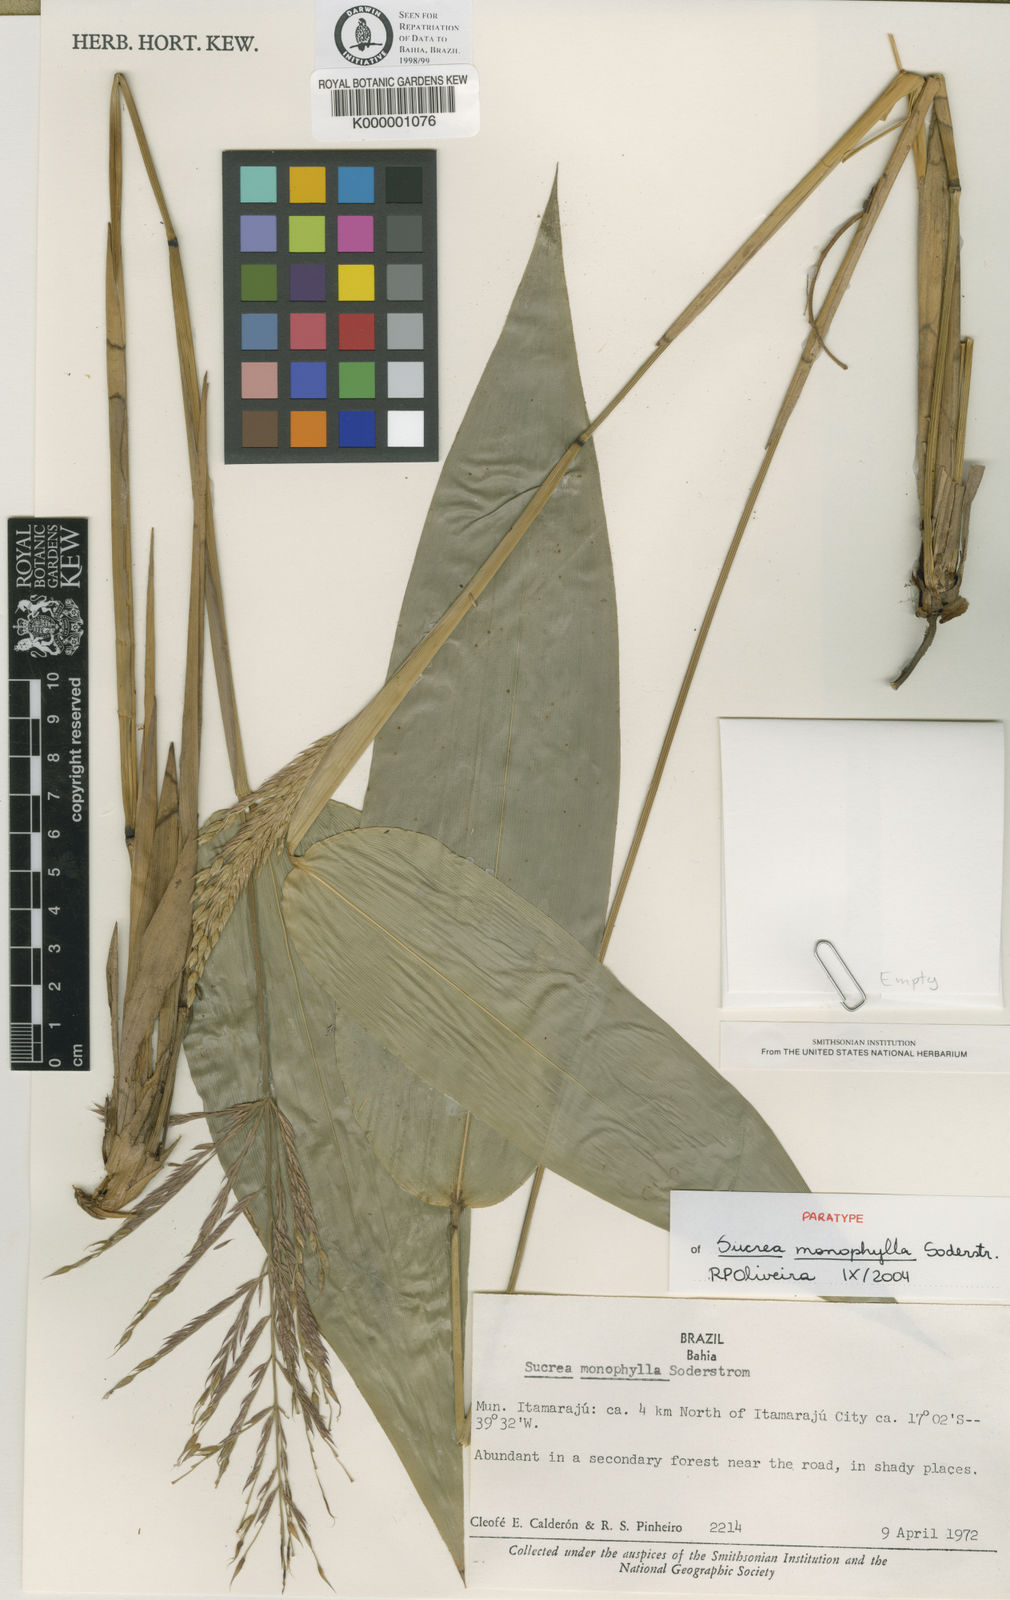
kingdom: Plantae
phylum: Tracheophyta
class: Liliopsida
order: Poales
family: Poaceae
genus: Raddia
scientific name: Raddia monophylla
